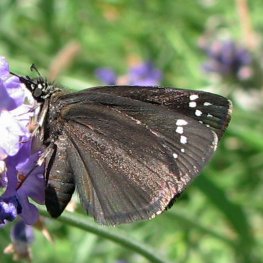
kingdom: Animalia
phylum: Arthropoda
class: Insecta
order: Lepidoptera
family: Hesperiidae
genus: Pholisora
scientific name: Pholisora catullus
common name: Common Sootywing
